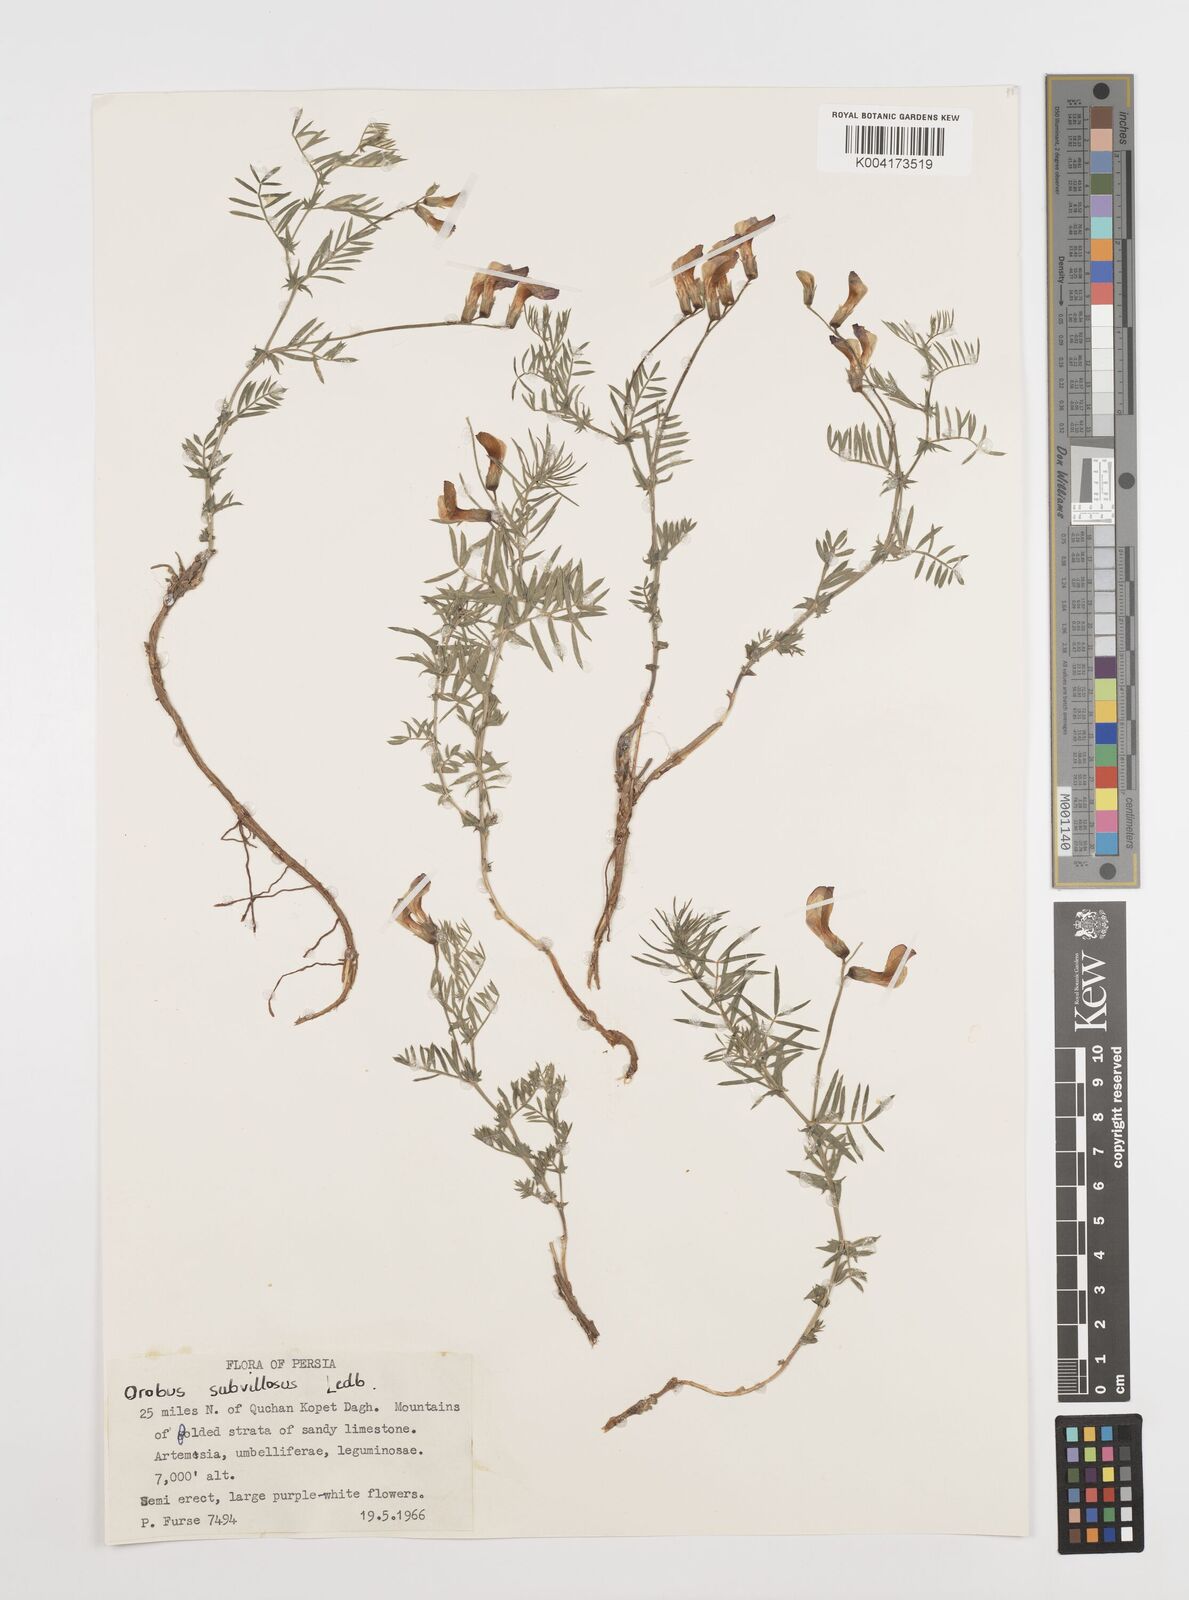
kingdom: Plantae
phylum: Tracheophyta
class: Magnoliopsida
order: Fabales
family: Fabaceae
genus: Vicia
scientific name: Vicia subvillosa
